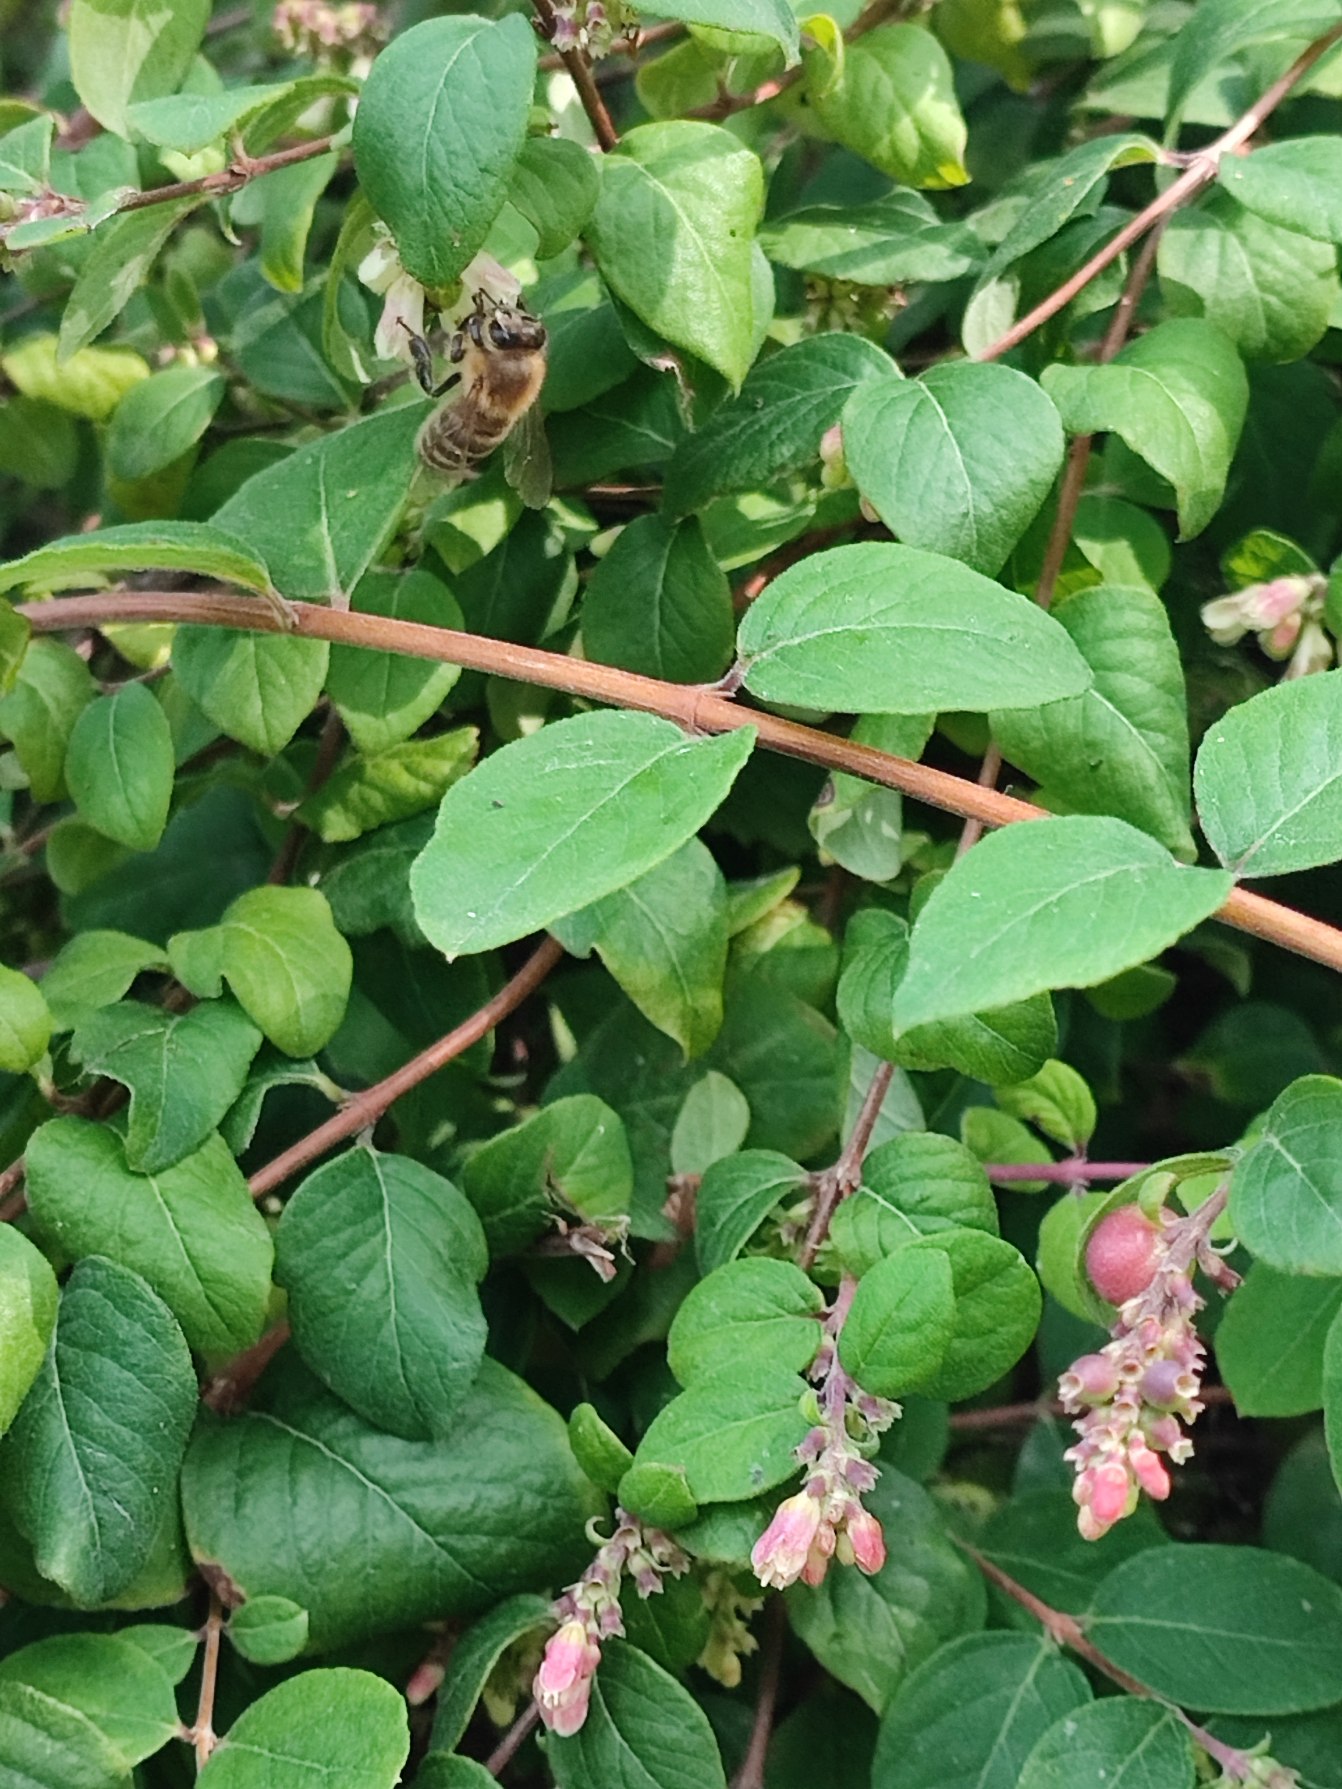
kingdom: Animalia
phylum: Arthropoda
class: Insecta
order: Hymenoptera
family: Apidae
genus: Apis
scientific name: Apis mellifera
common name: Honningbi
